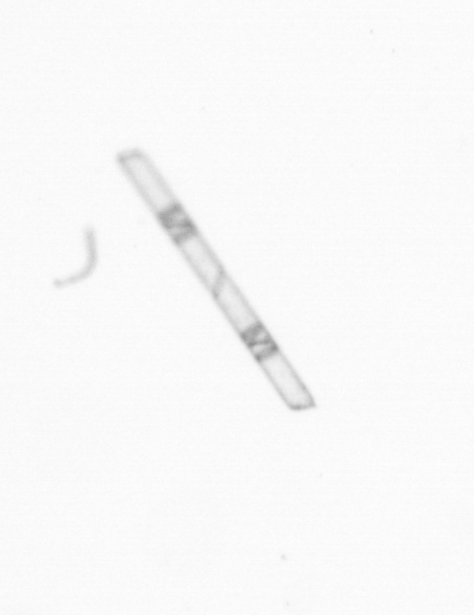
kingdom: Chromista
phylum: Ochrophyta
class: Bacillariophyceae
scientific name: Bacillariophyceae
